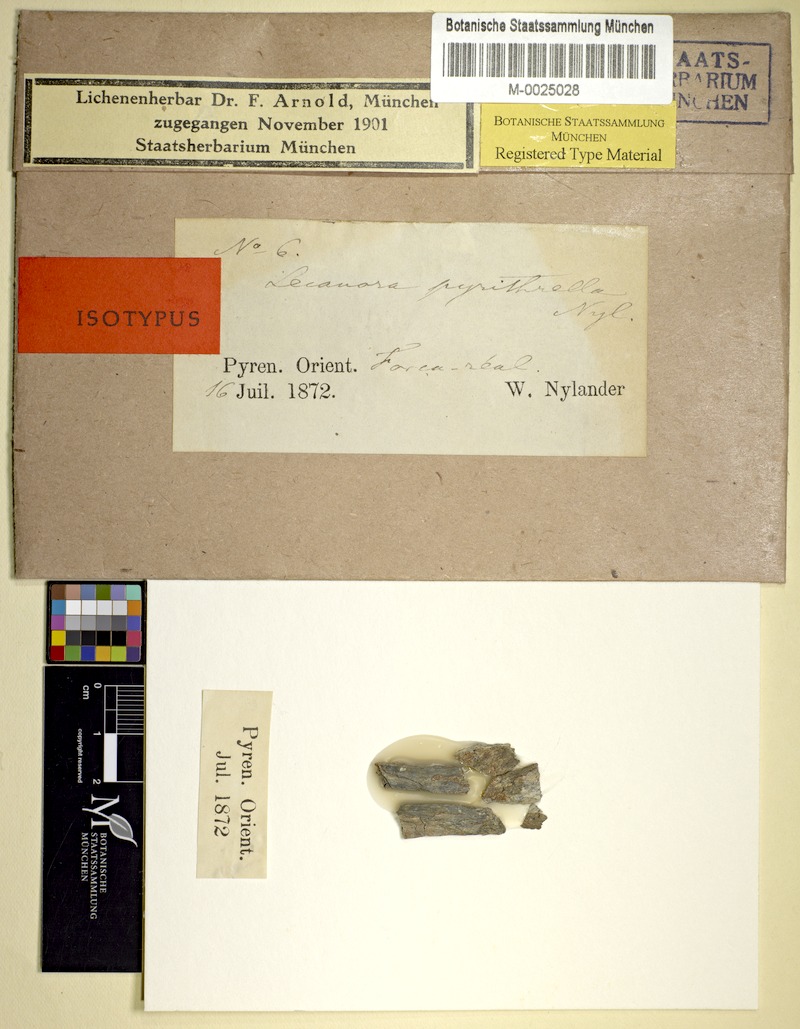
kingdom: Fungi
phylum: Ascomycota
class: Lecanoromycetes
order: Teloschistales
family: Teloschistaceae
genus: Caloplaca
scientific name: Caloplaca pyrithrella
